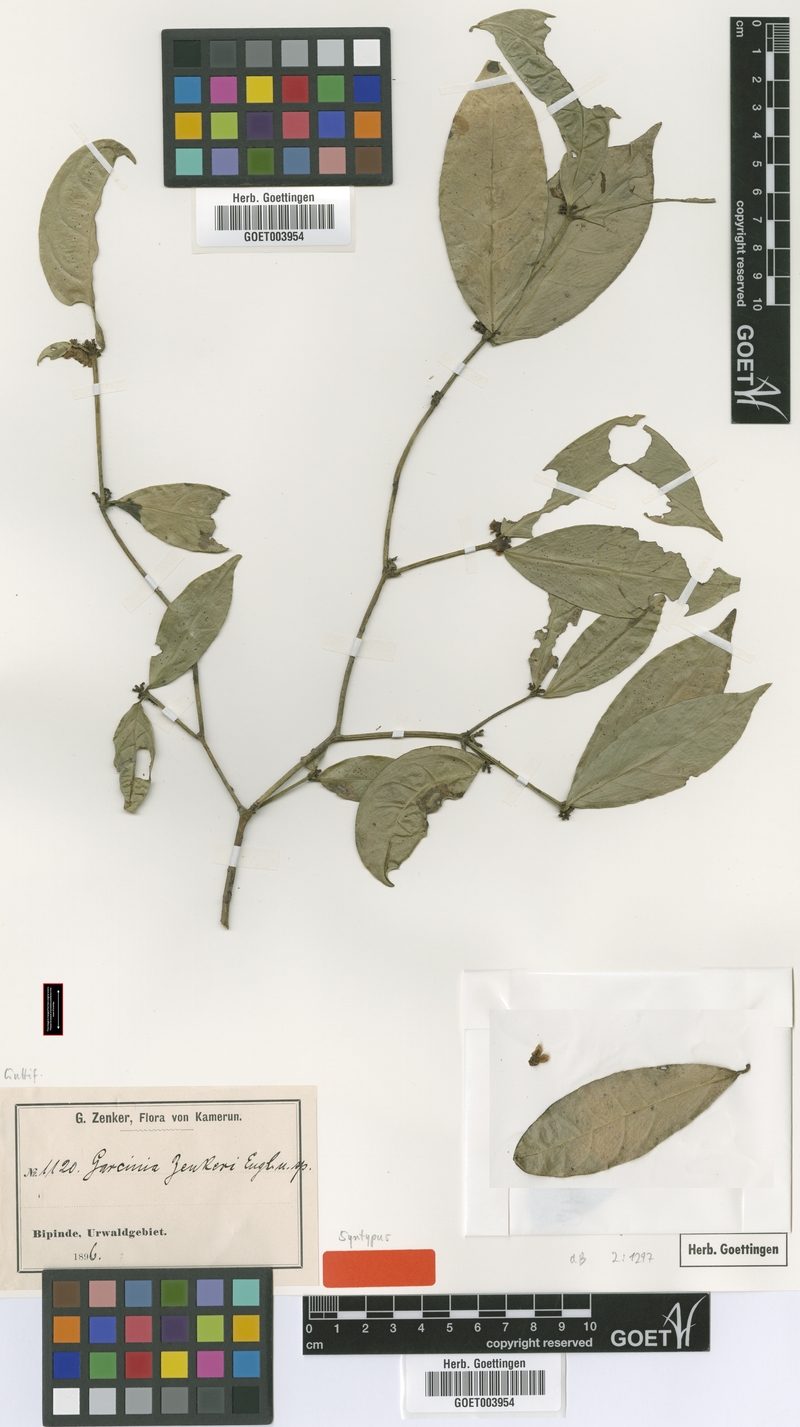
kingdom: Plantae
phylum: Tracheophyta
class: Magnoliopsida
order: Malpighiales
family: Clusiaceae
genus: Garcinia
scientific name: Garcinia densivenia
